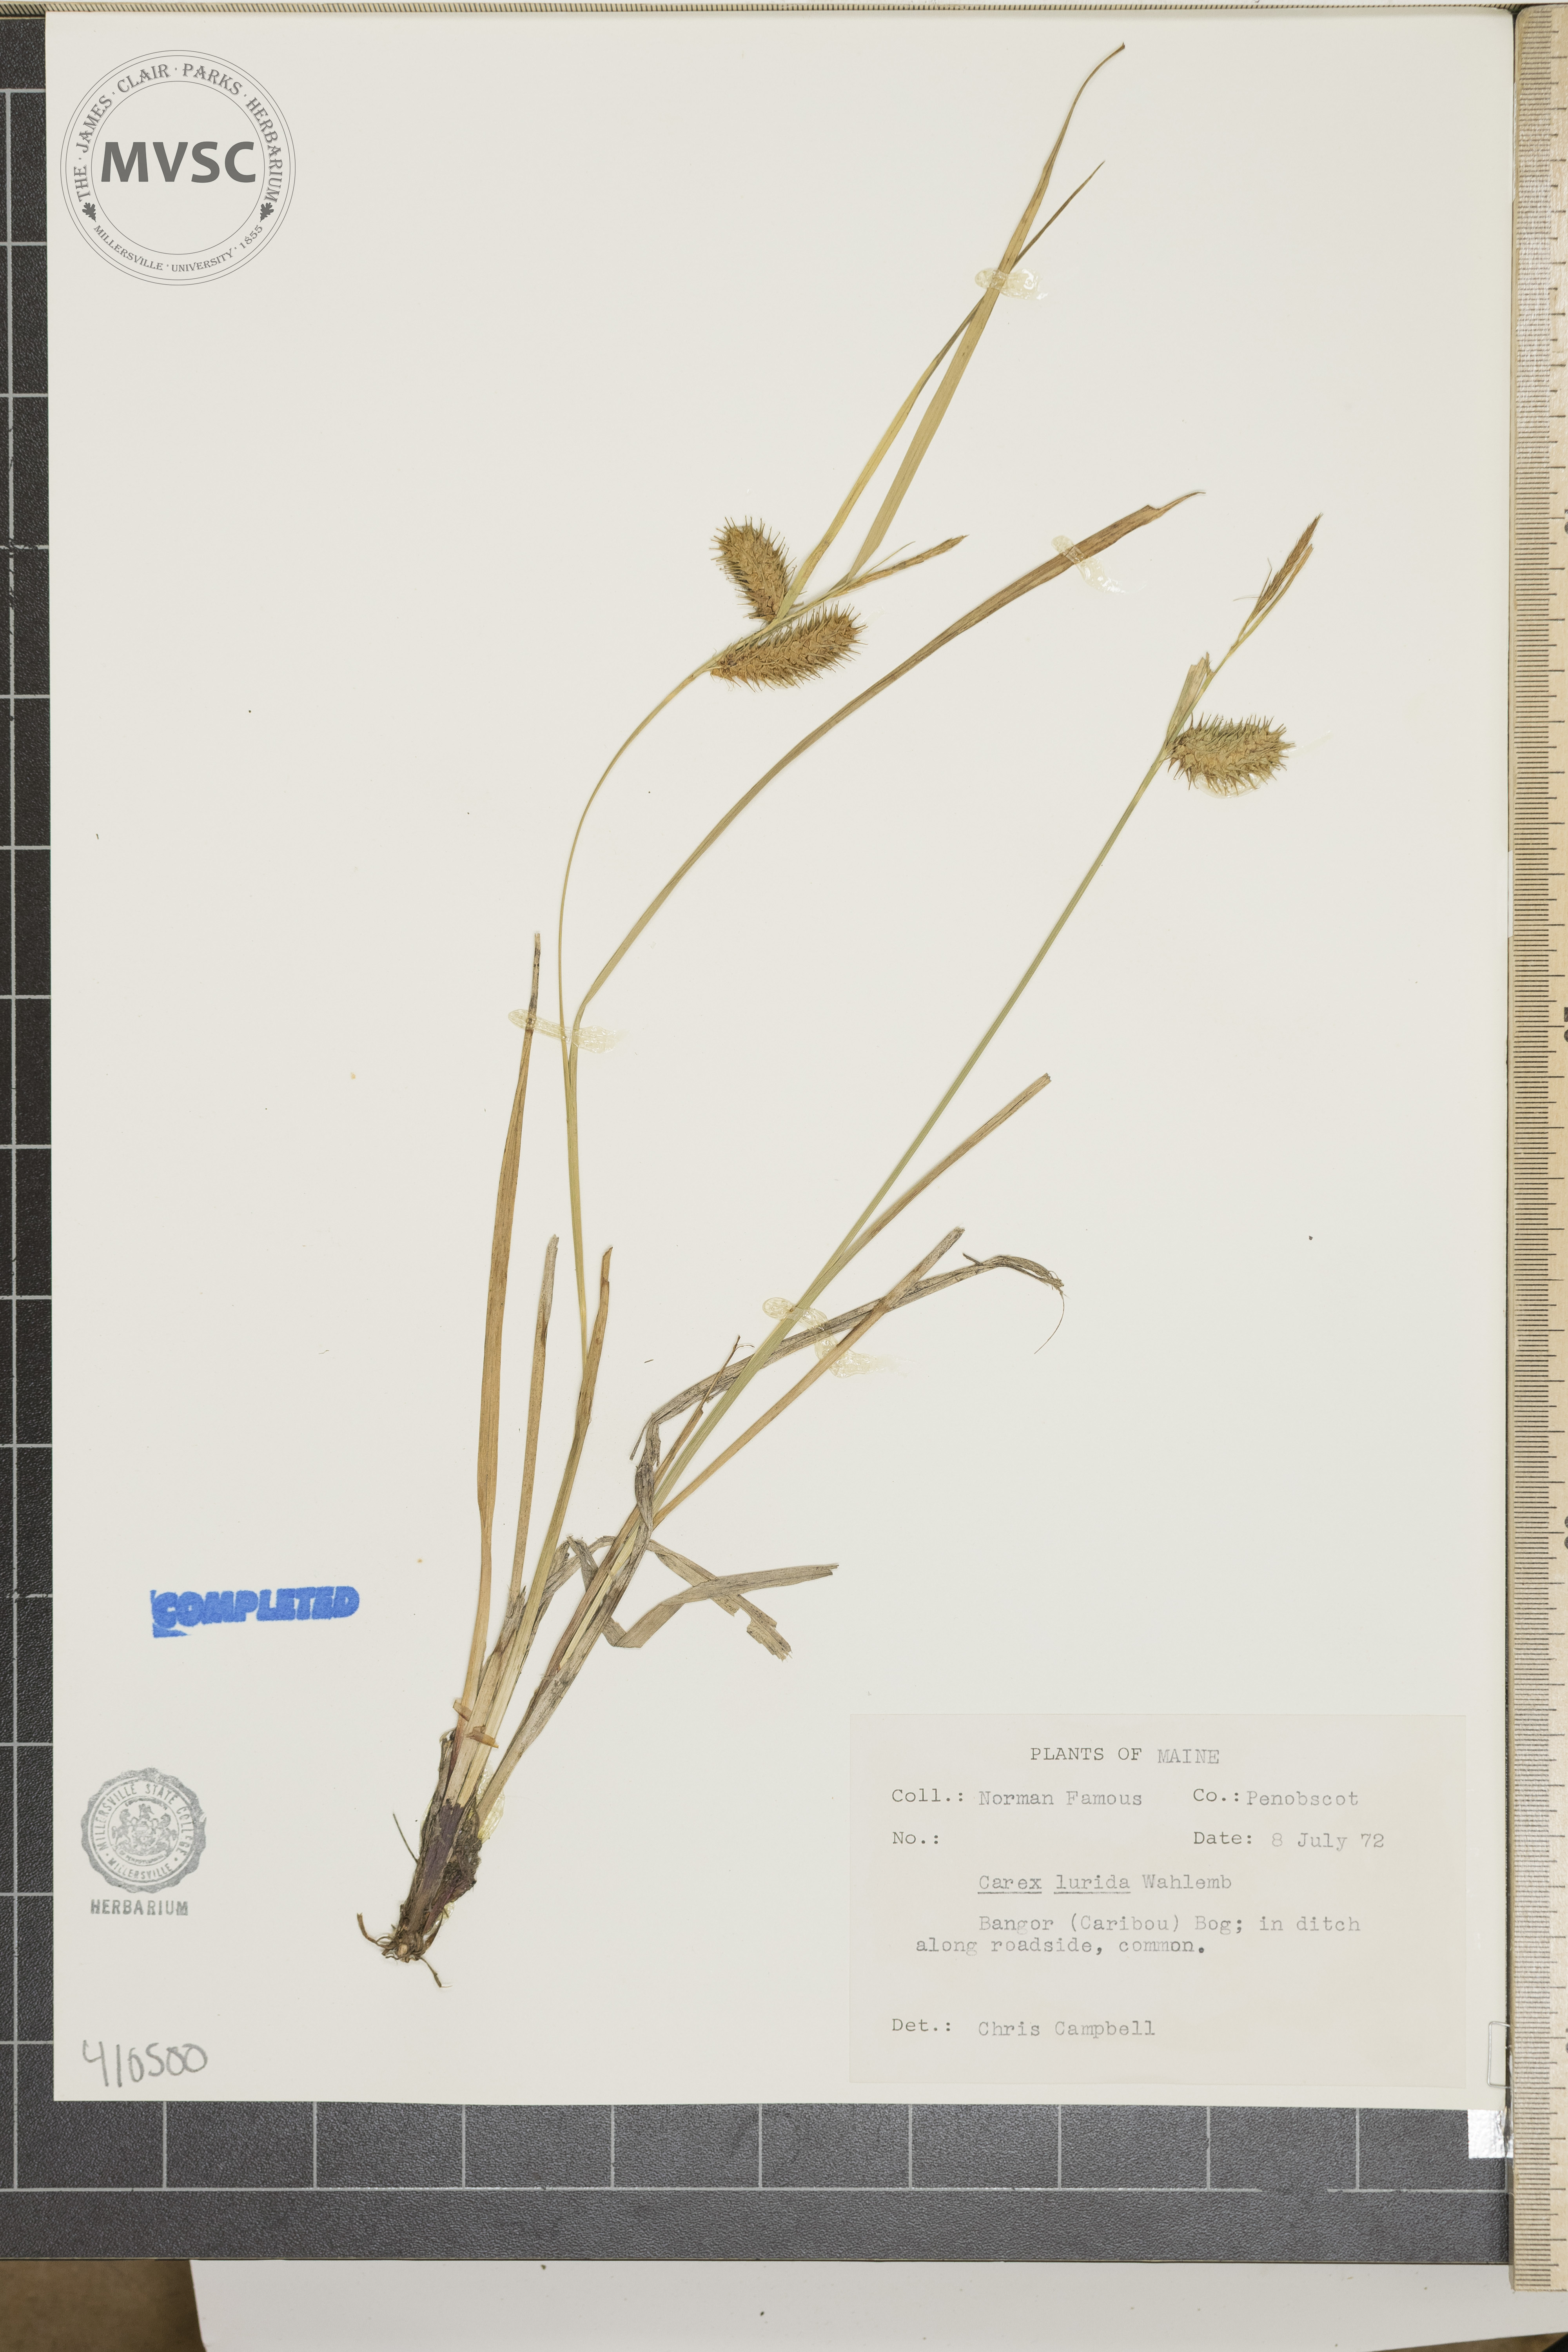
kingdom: Plantae
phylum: Tracheophyta
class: Liliopsida
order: Poales
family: Cyperaceae
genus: Carex
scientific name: Carex lurida
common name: Sallow sedge
